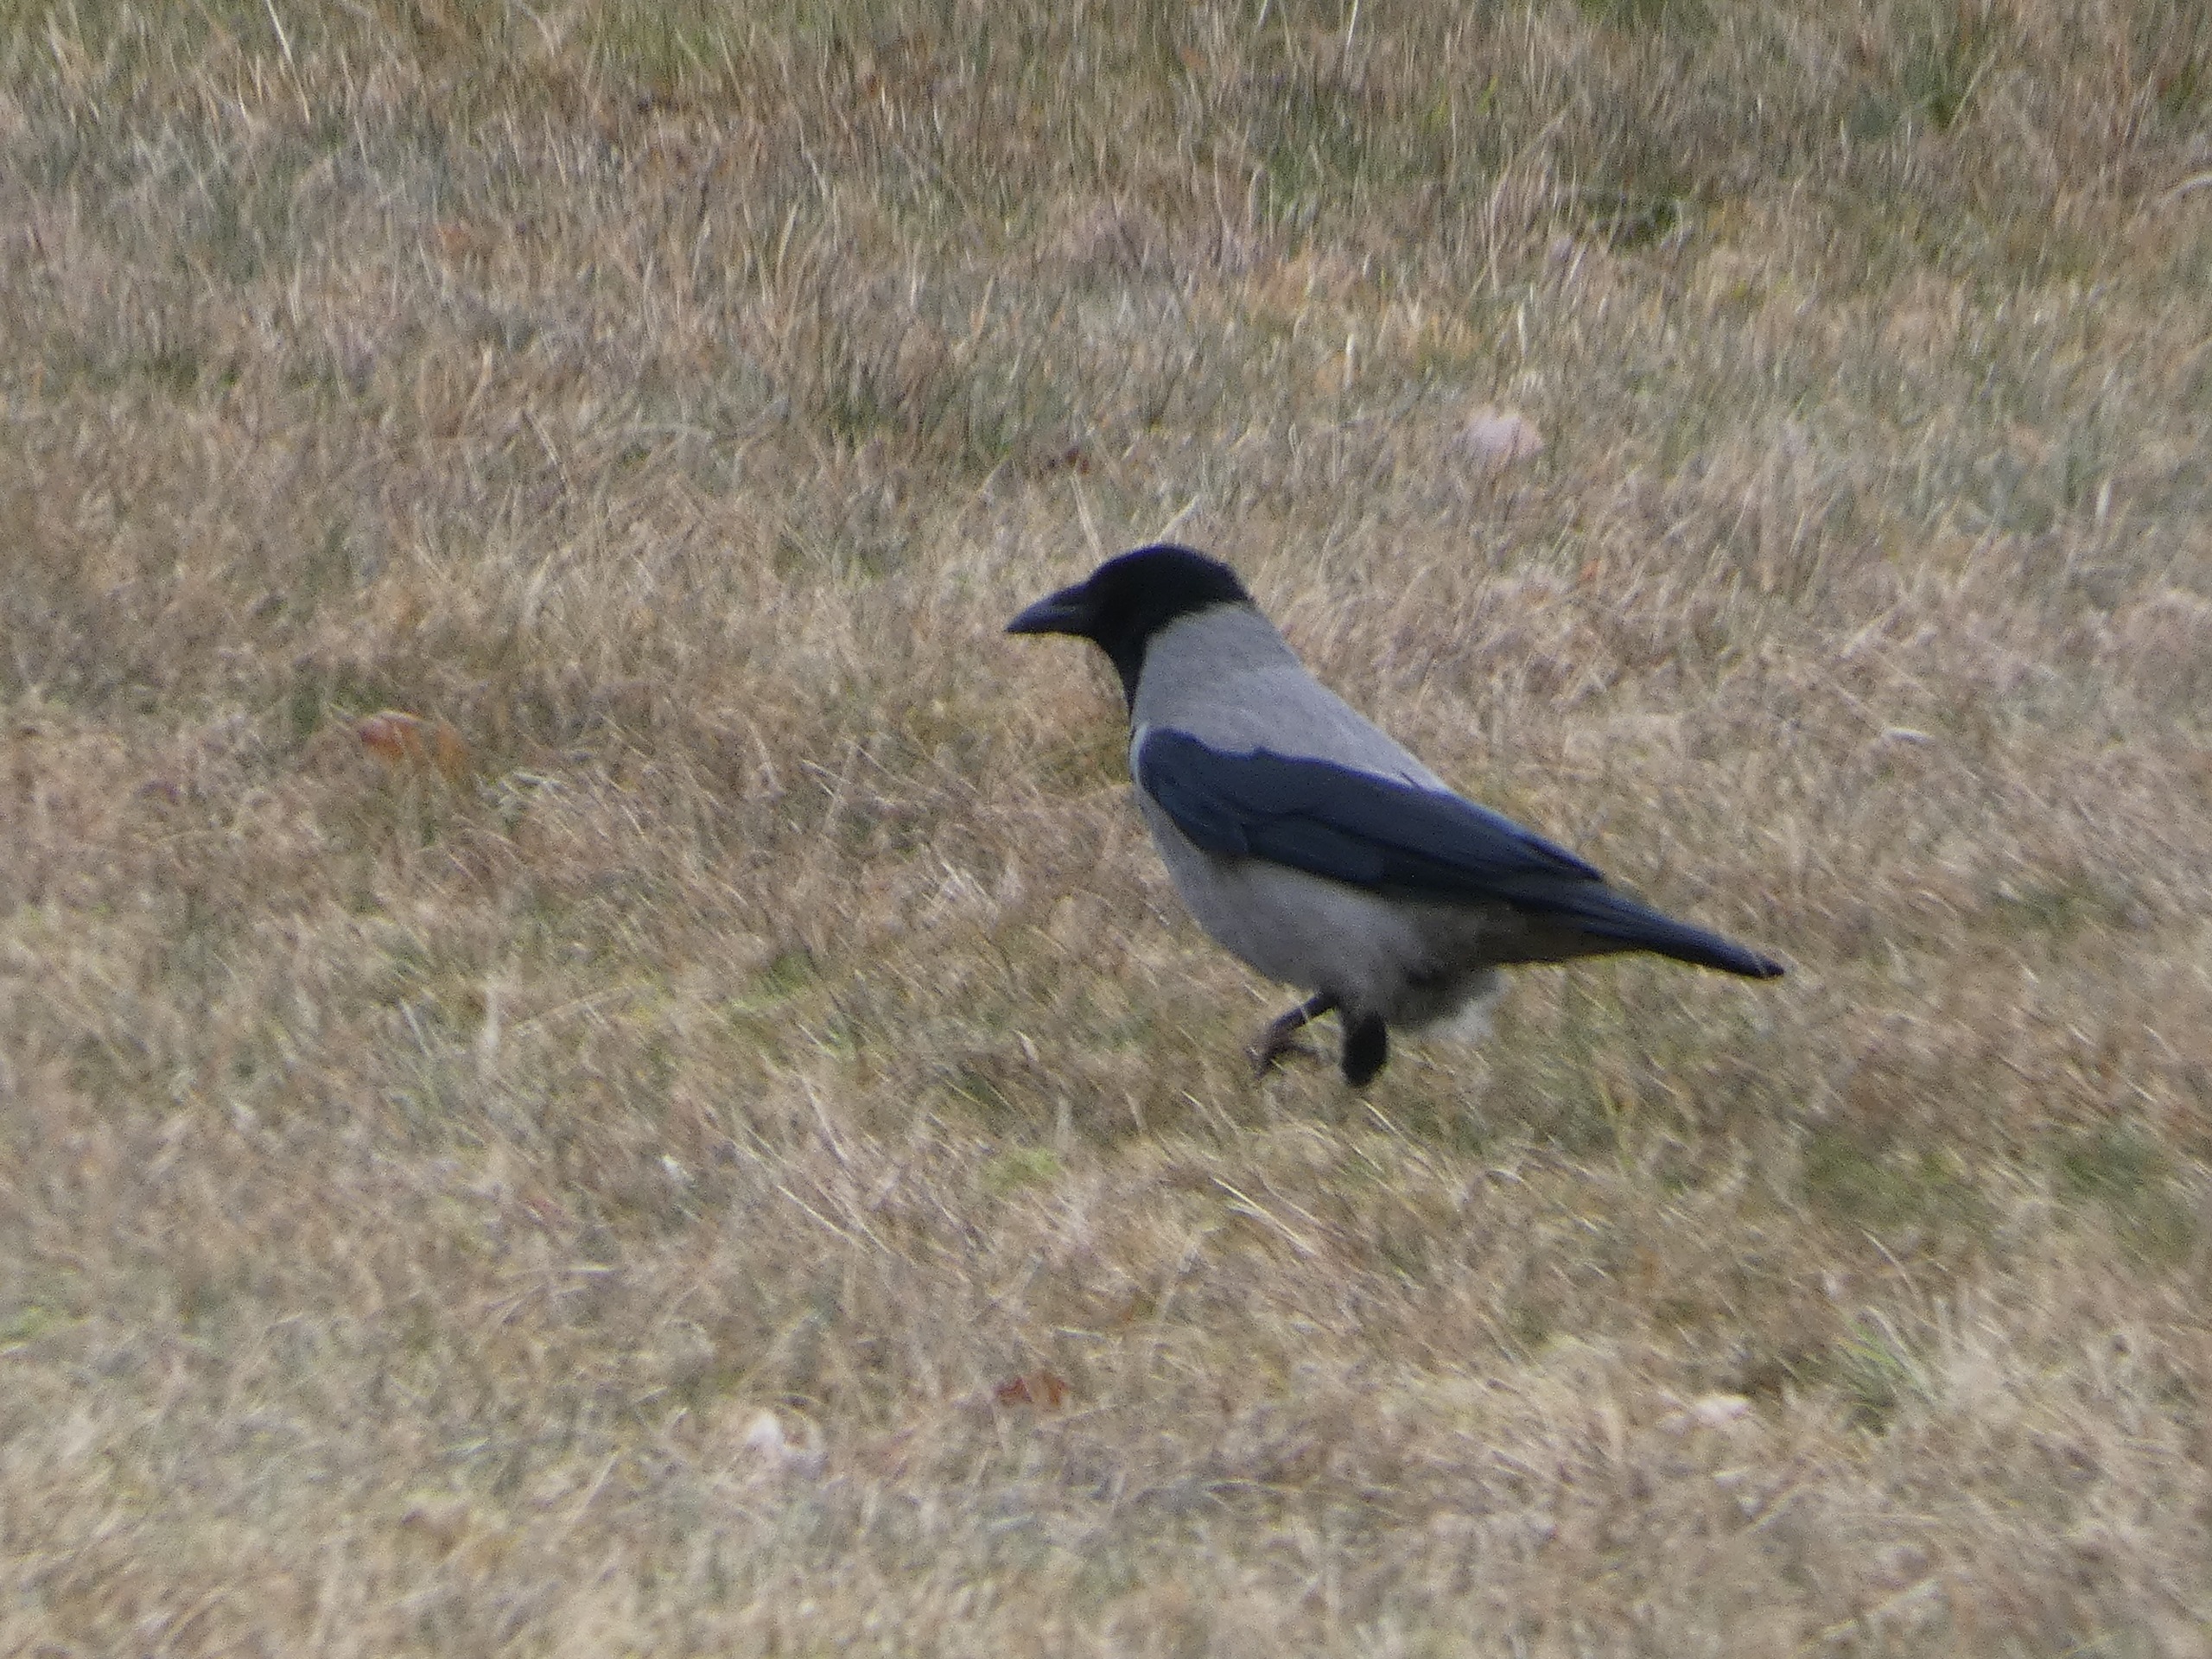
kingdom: Animalia
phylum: Chordata
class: Aves
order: Passeriformes
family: Corvidae
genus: Corvus
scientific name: Corvus cornix
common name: Gråkrage
